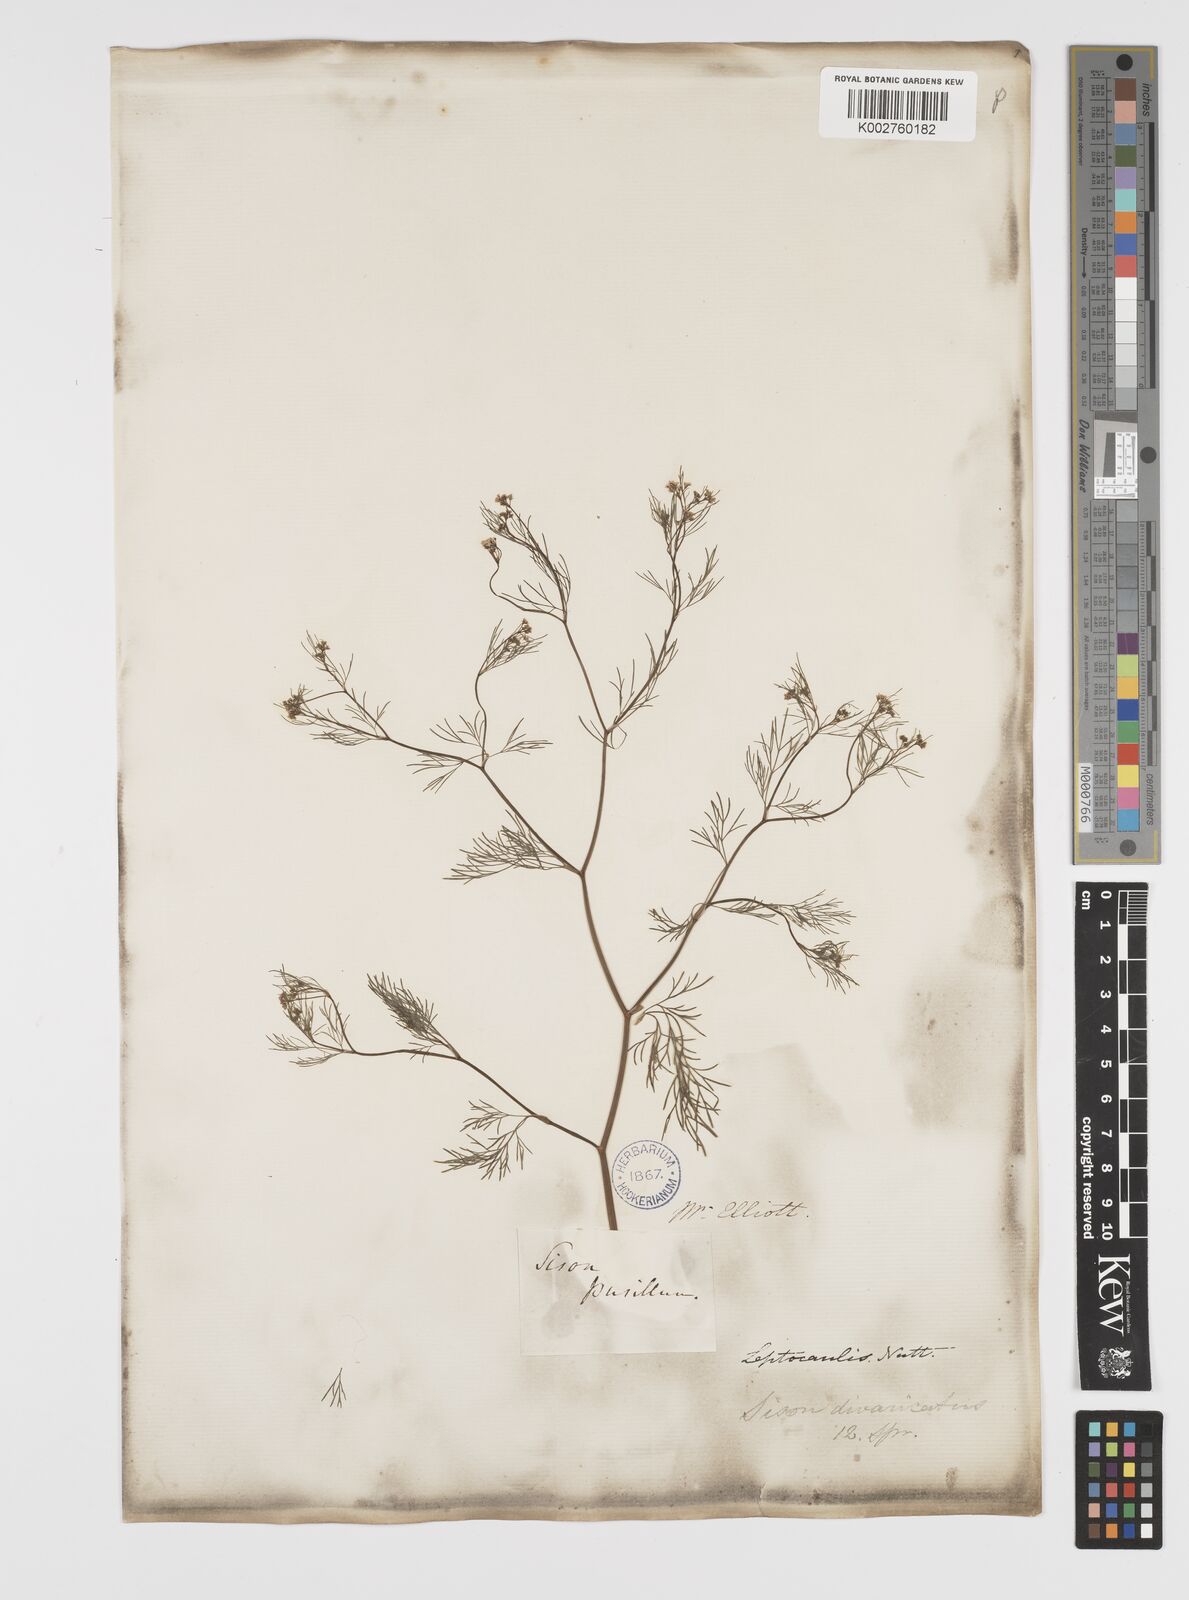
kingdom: Plantae
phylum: Tracheophyta
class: Magnoliopsida
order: Apiales
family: Apiaceae
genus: Spermolepis
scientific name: Spermolepis divaricata
